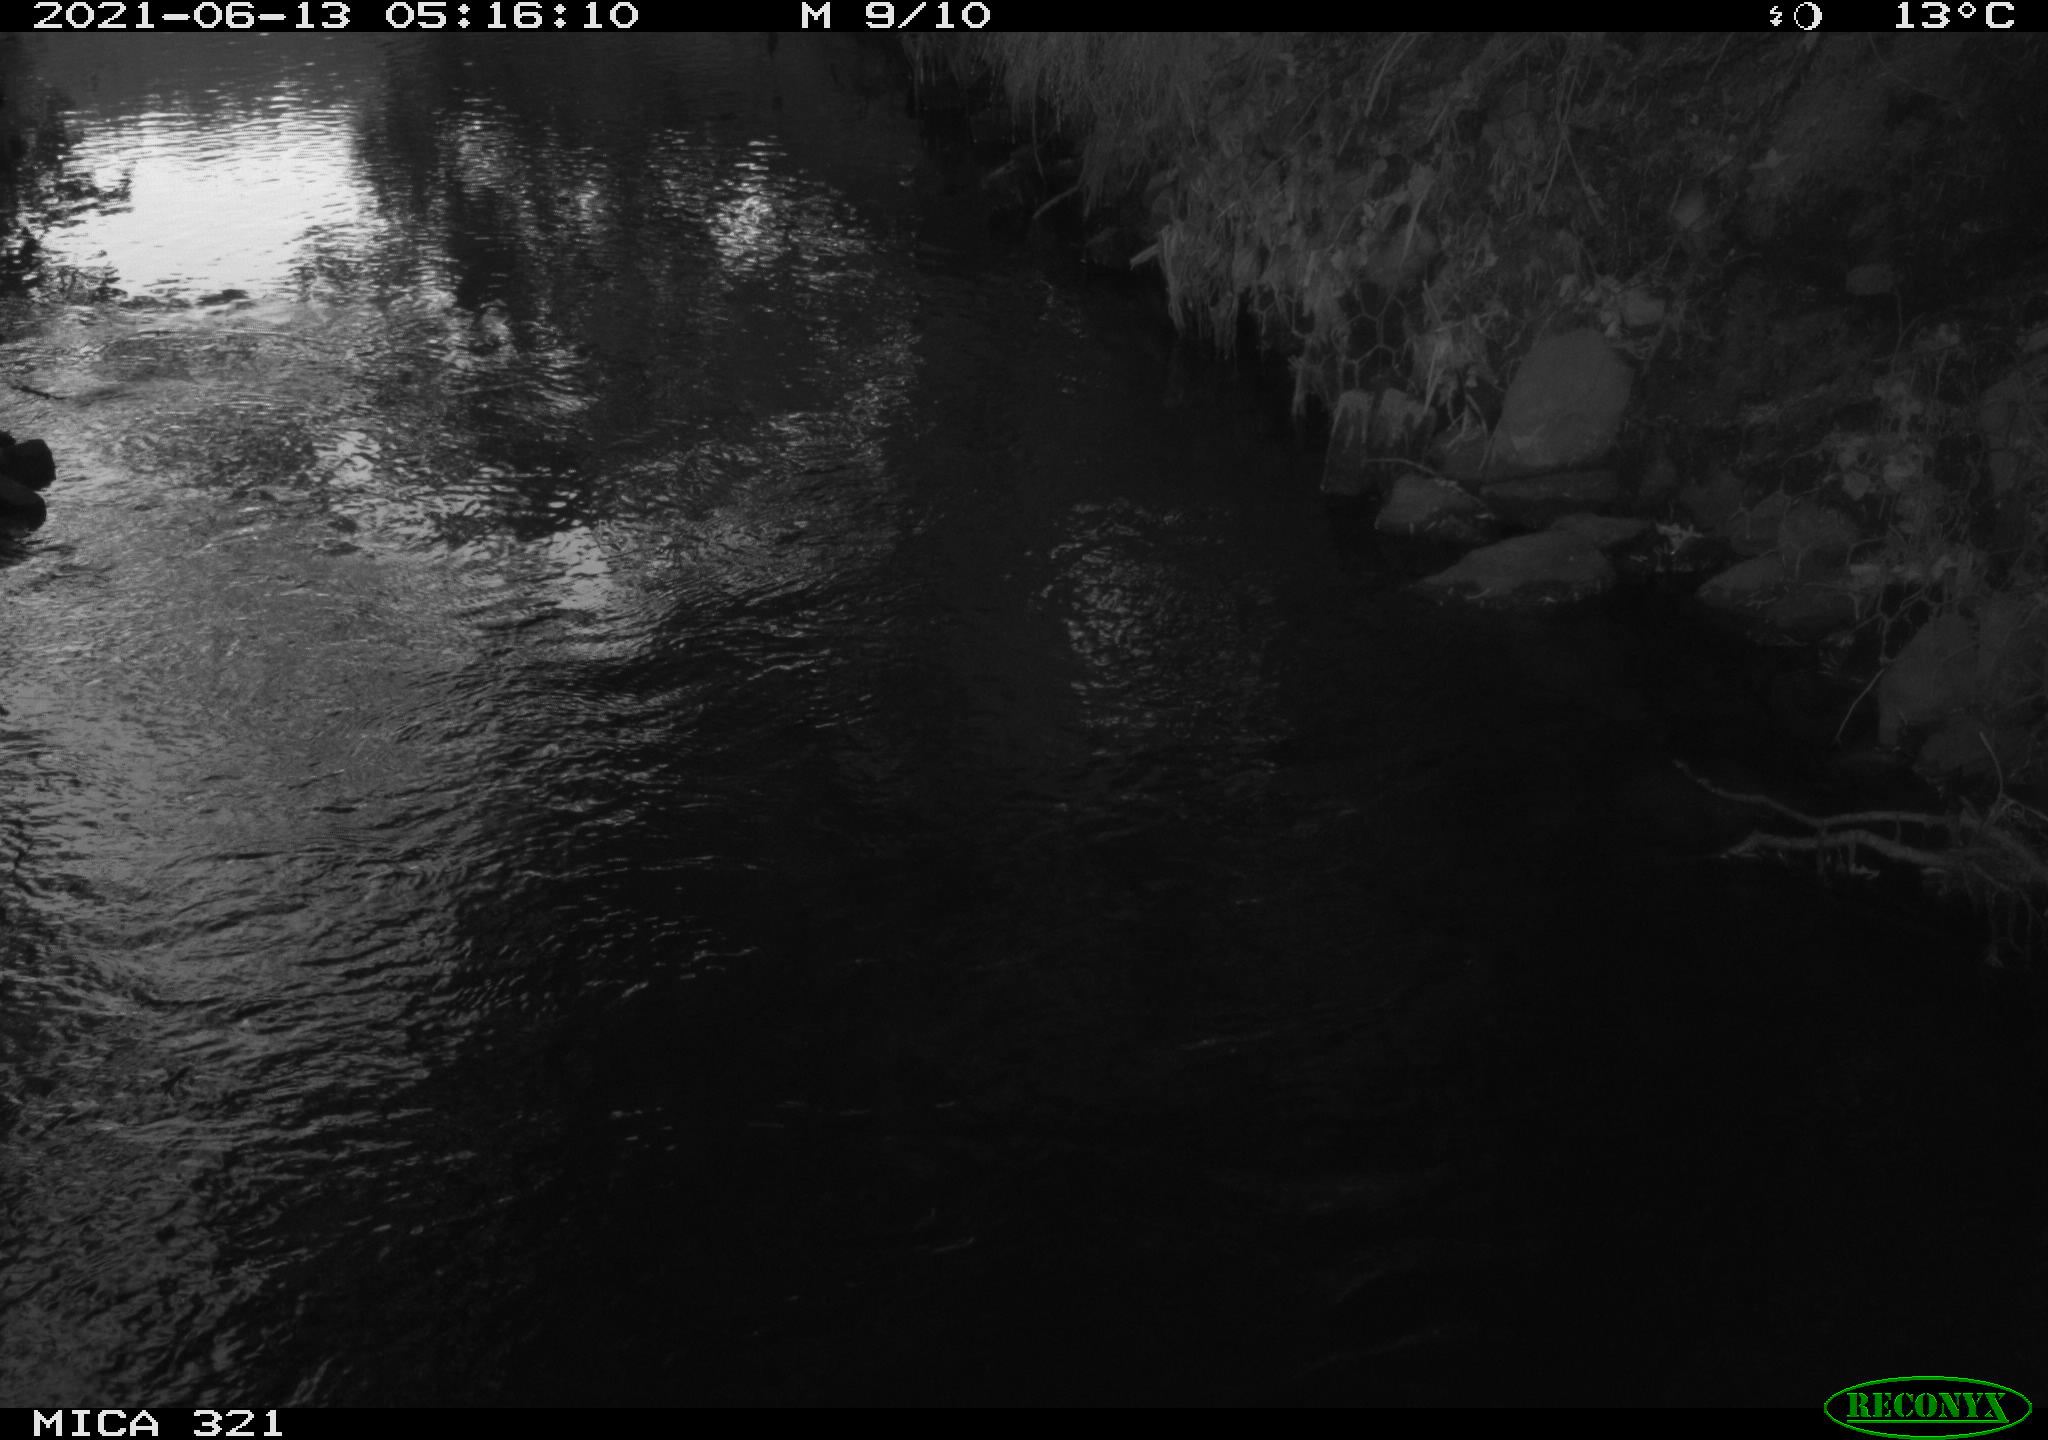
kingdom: Animalia
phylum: Chordata
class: Aves
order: Anseriformes
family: Anatidae
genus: Anas
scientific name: Anas platyrhynchos
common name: Mallard
